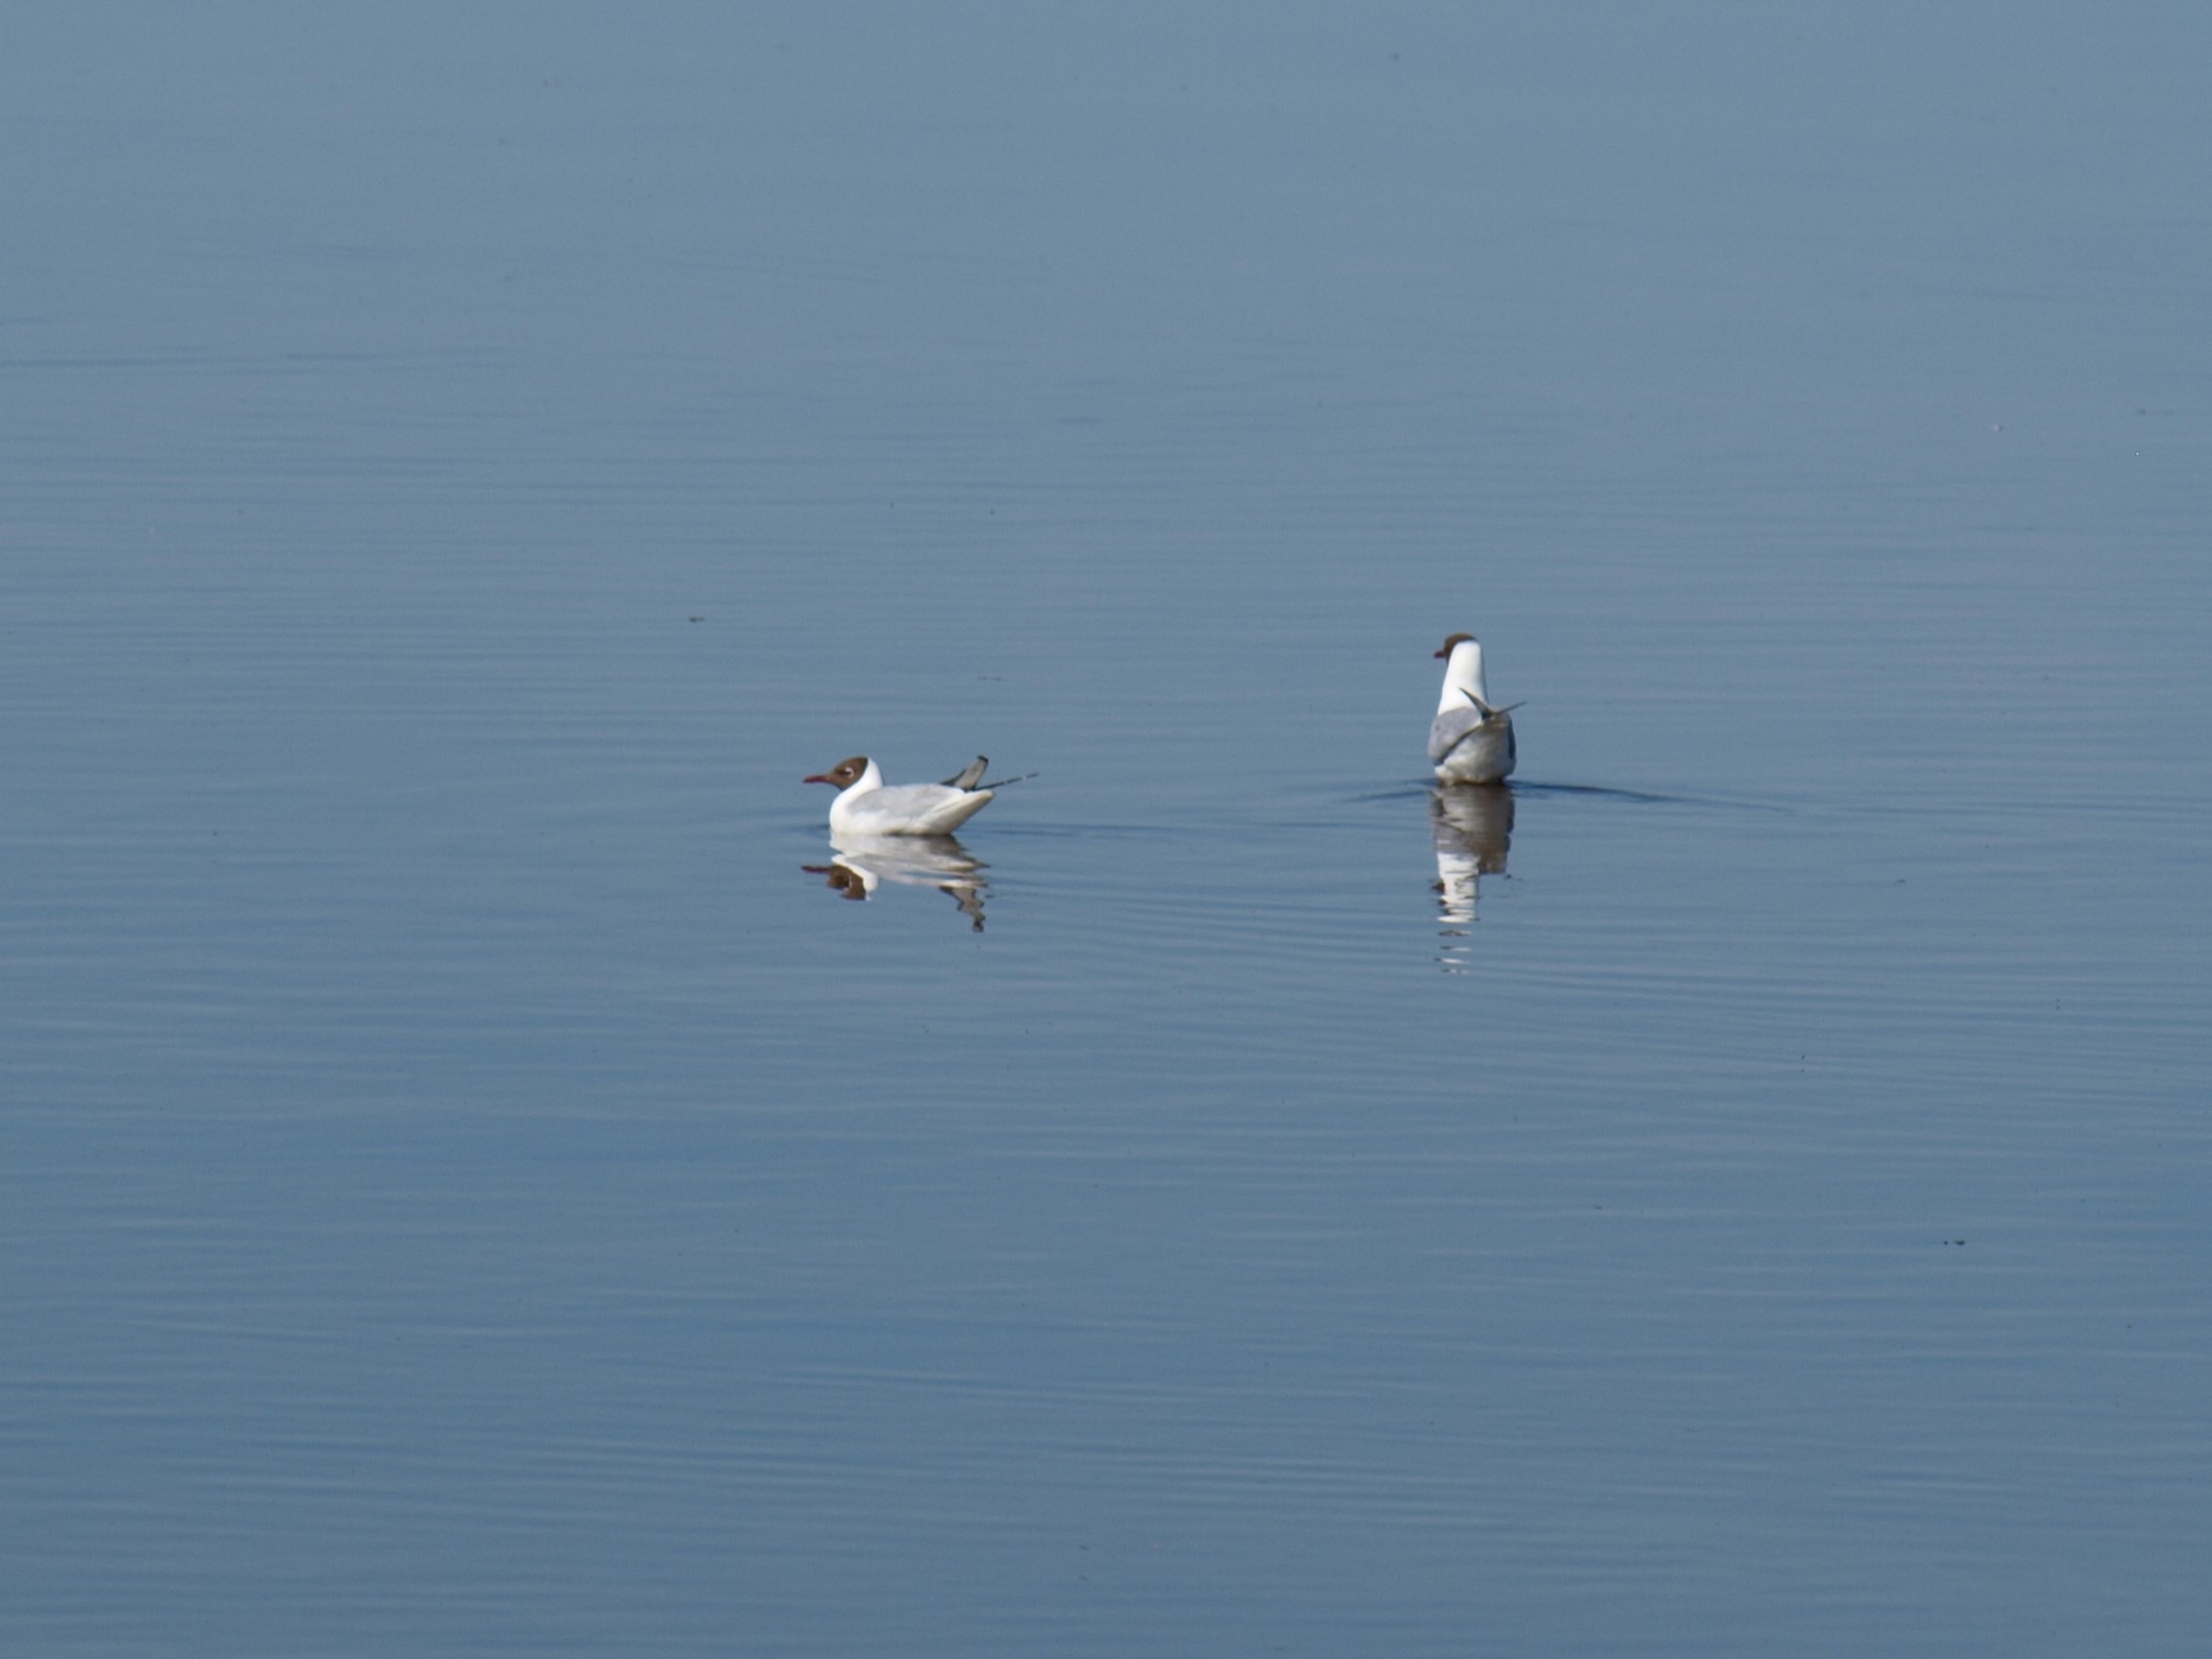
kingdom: Animalia
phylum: Chordata
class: Aves
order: Charadriiformes
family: Laridae
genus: Chroicocephalus
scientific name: Chroicocephalus ridibundus
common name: Hættemåge
